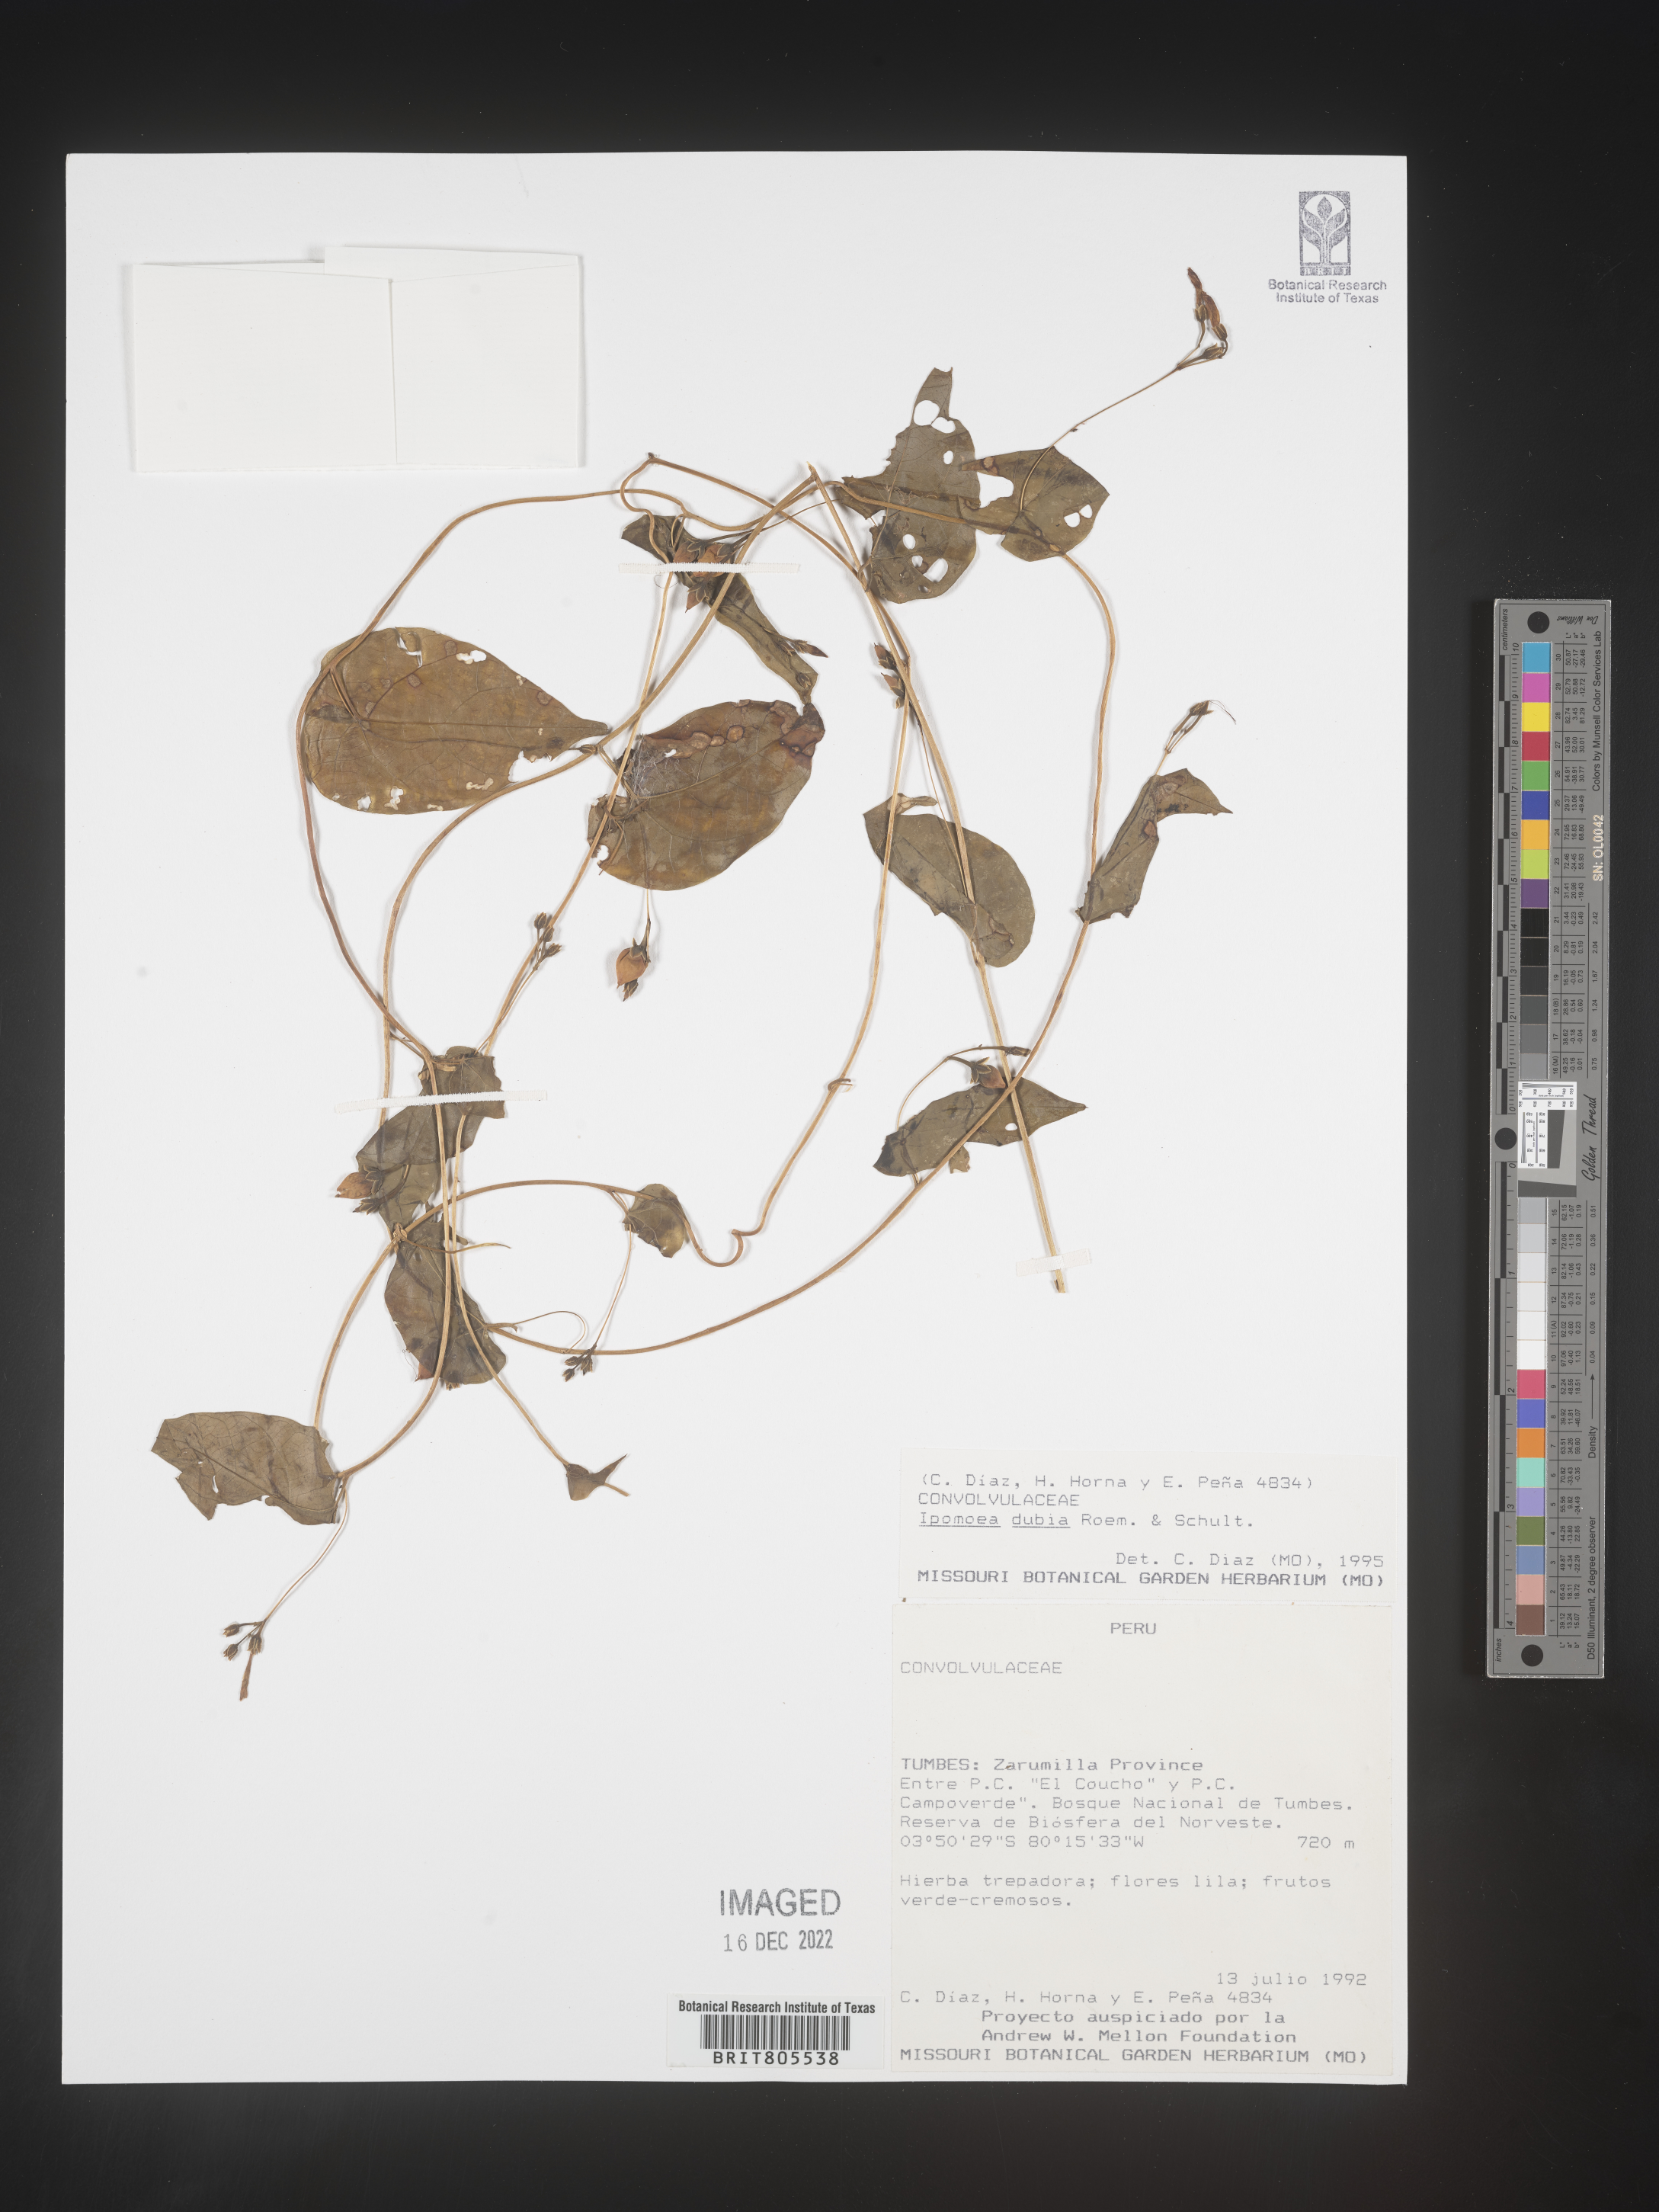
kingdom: Plantae
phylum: Tracheophyta
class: Magnoliopsida
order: Solanales
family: Convolvulaceae
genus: Ipomoea
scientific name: Ipomoea
